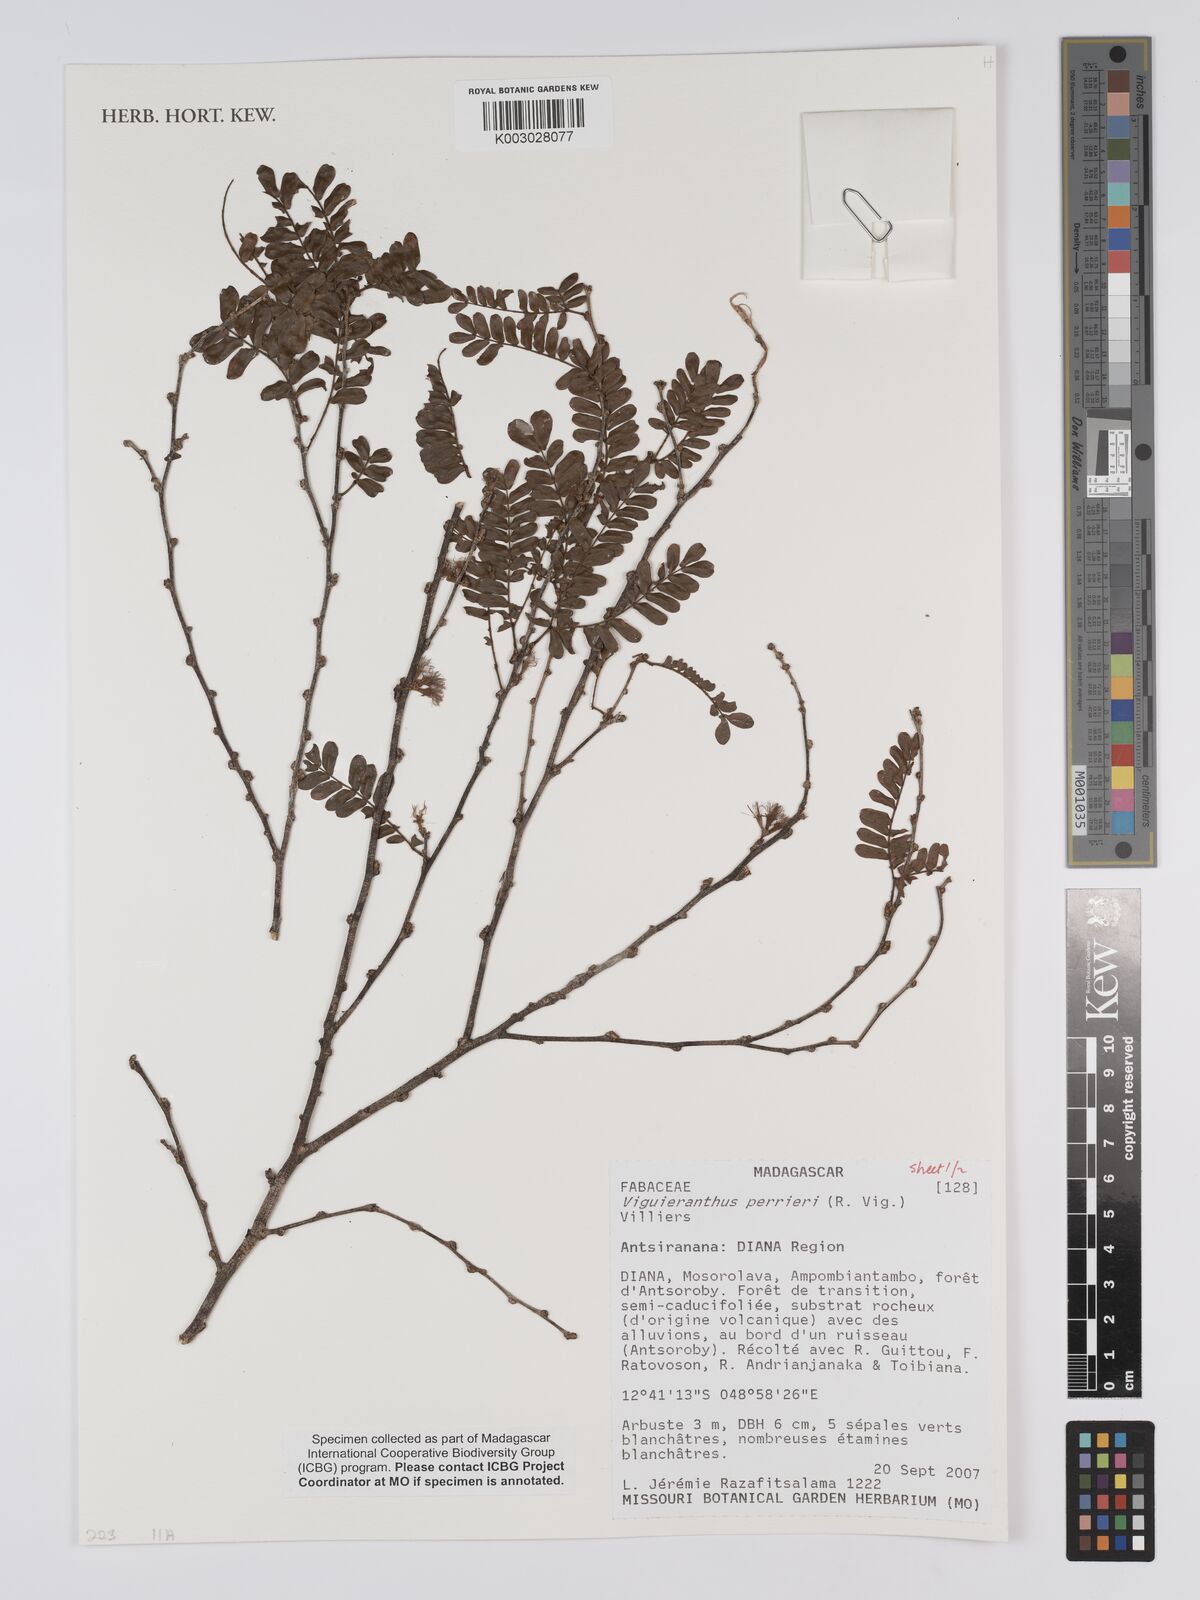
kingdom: Plantae
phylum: Tracheophyta
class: Magnoliopsida
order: Fabales
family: Fabaceae
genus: Viguieranthus
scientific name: Viguieranthus perrieri
